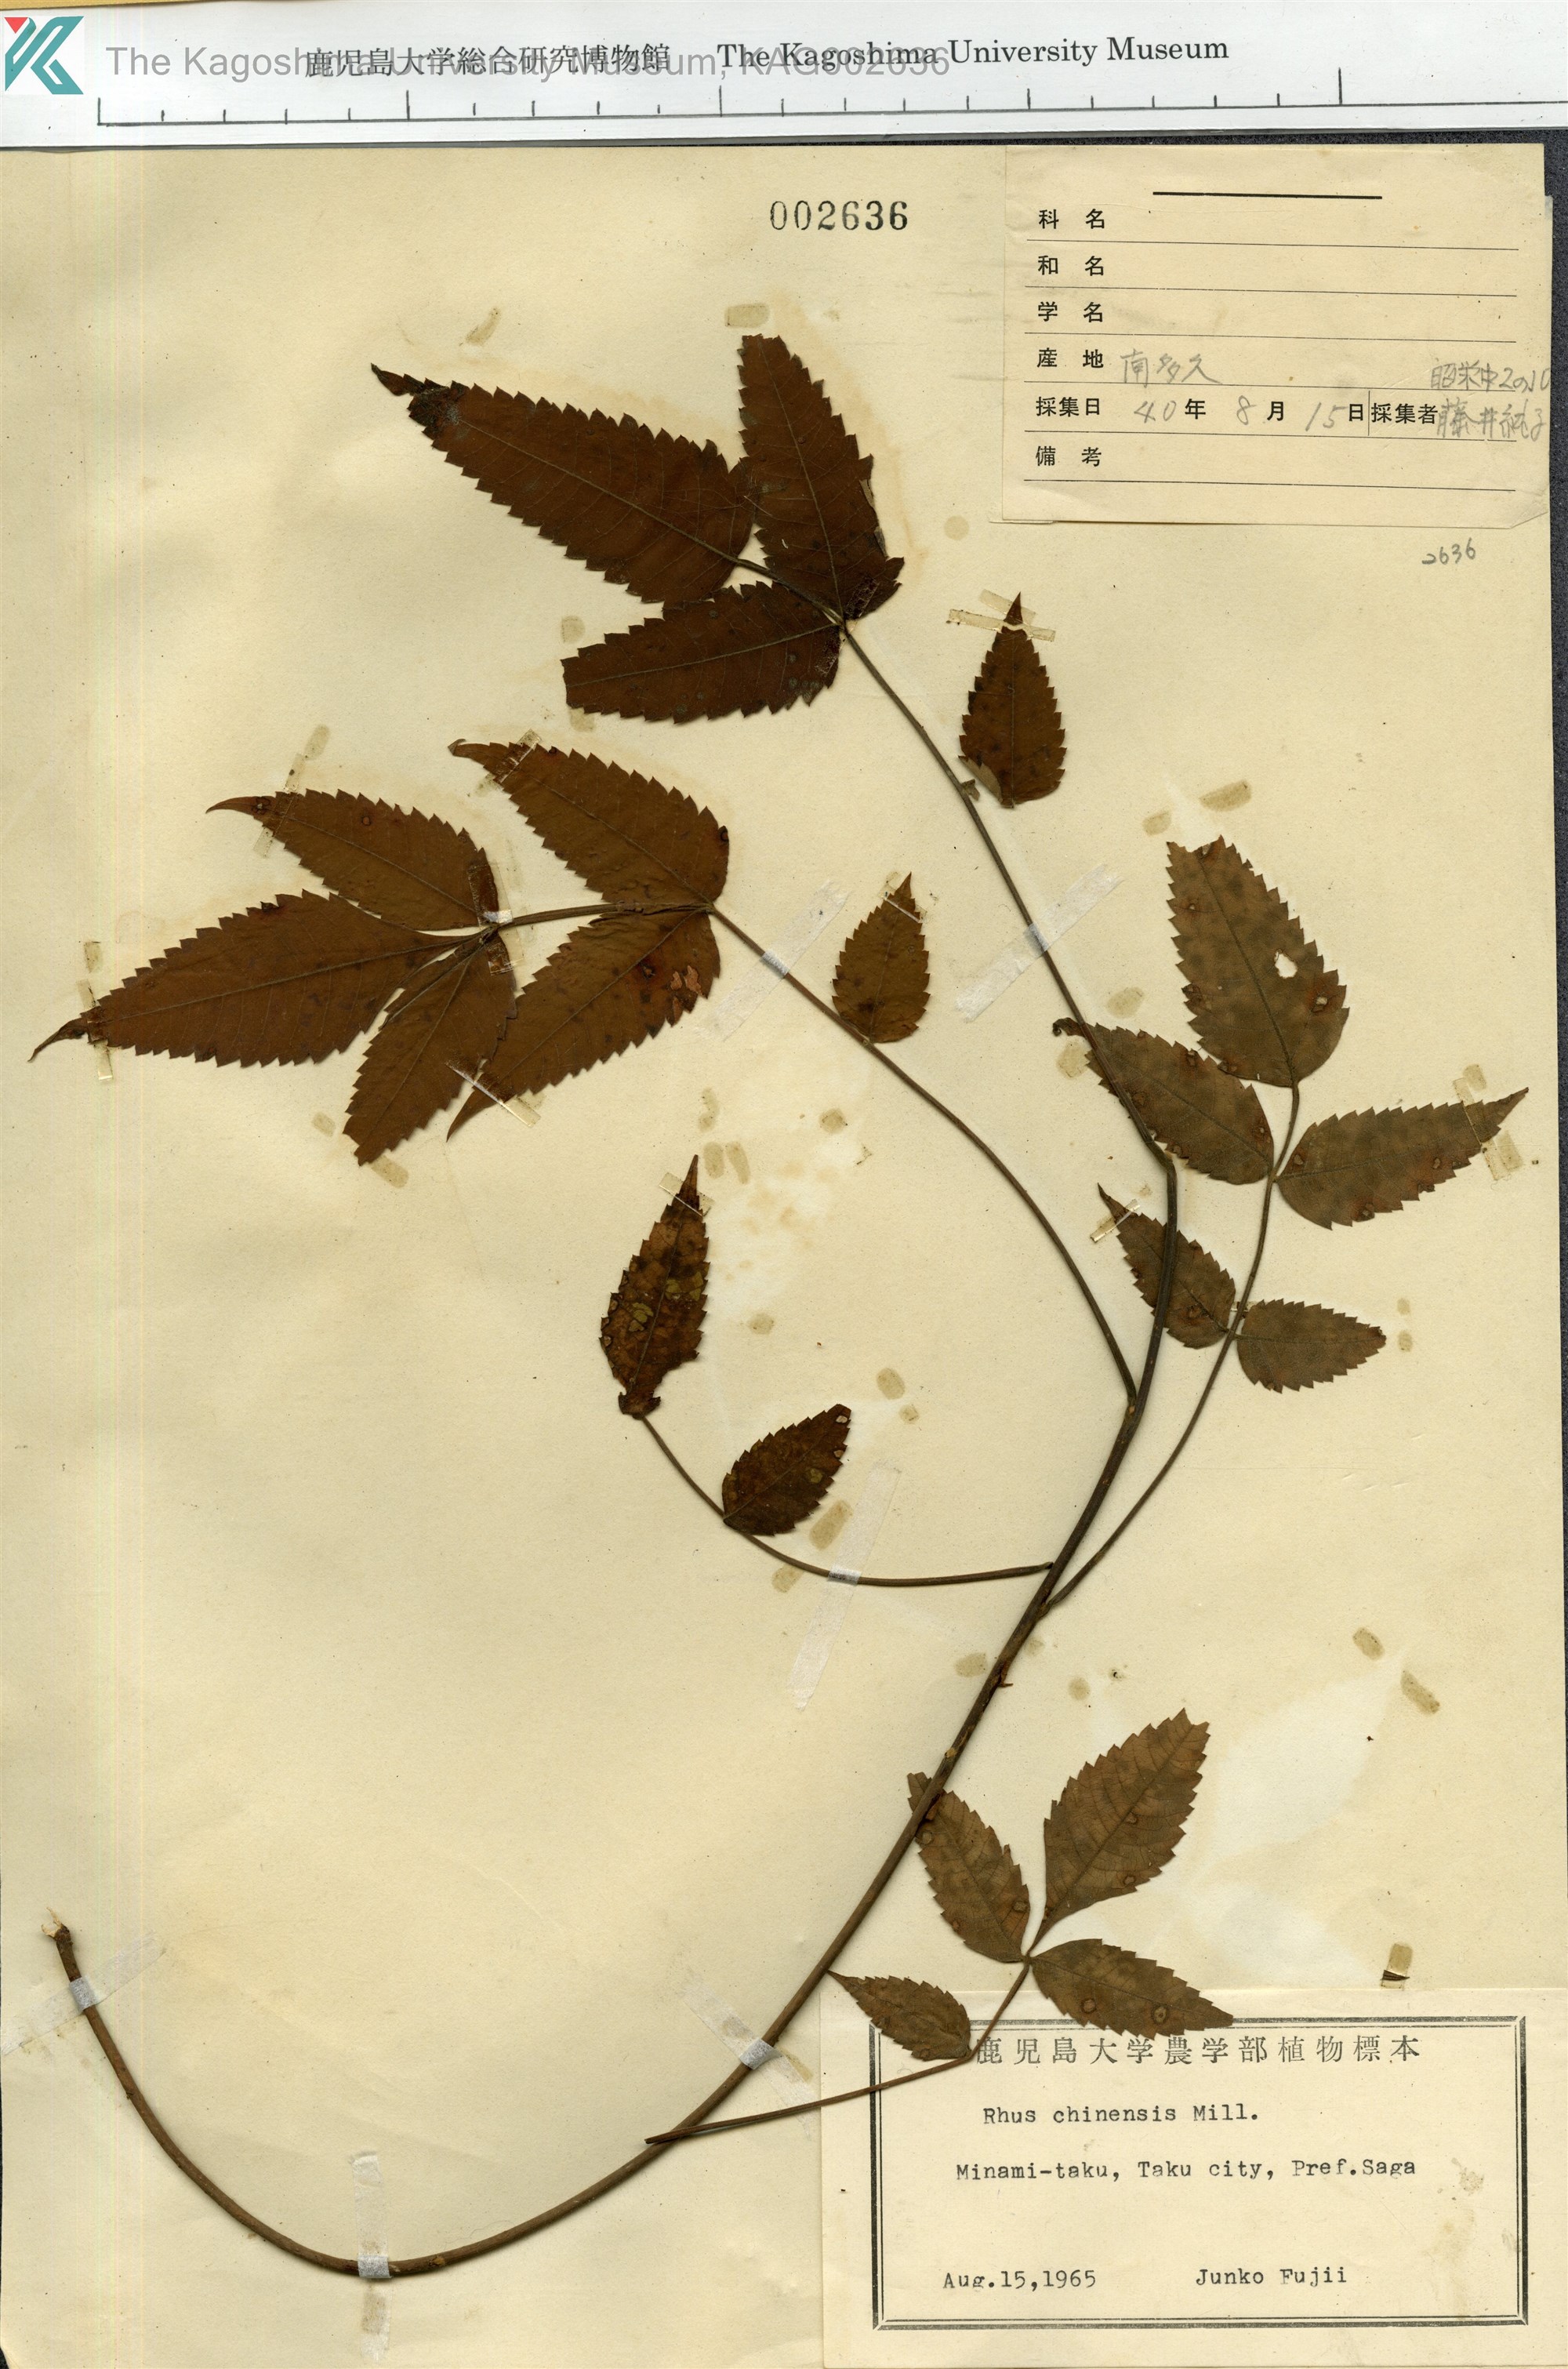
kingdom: Plantae
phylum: Tracheophyta
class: Magnoliopsida
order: Sapindales
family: Anacardiaceae
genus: Rhus
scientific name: Rhus chinensis
